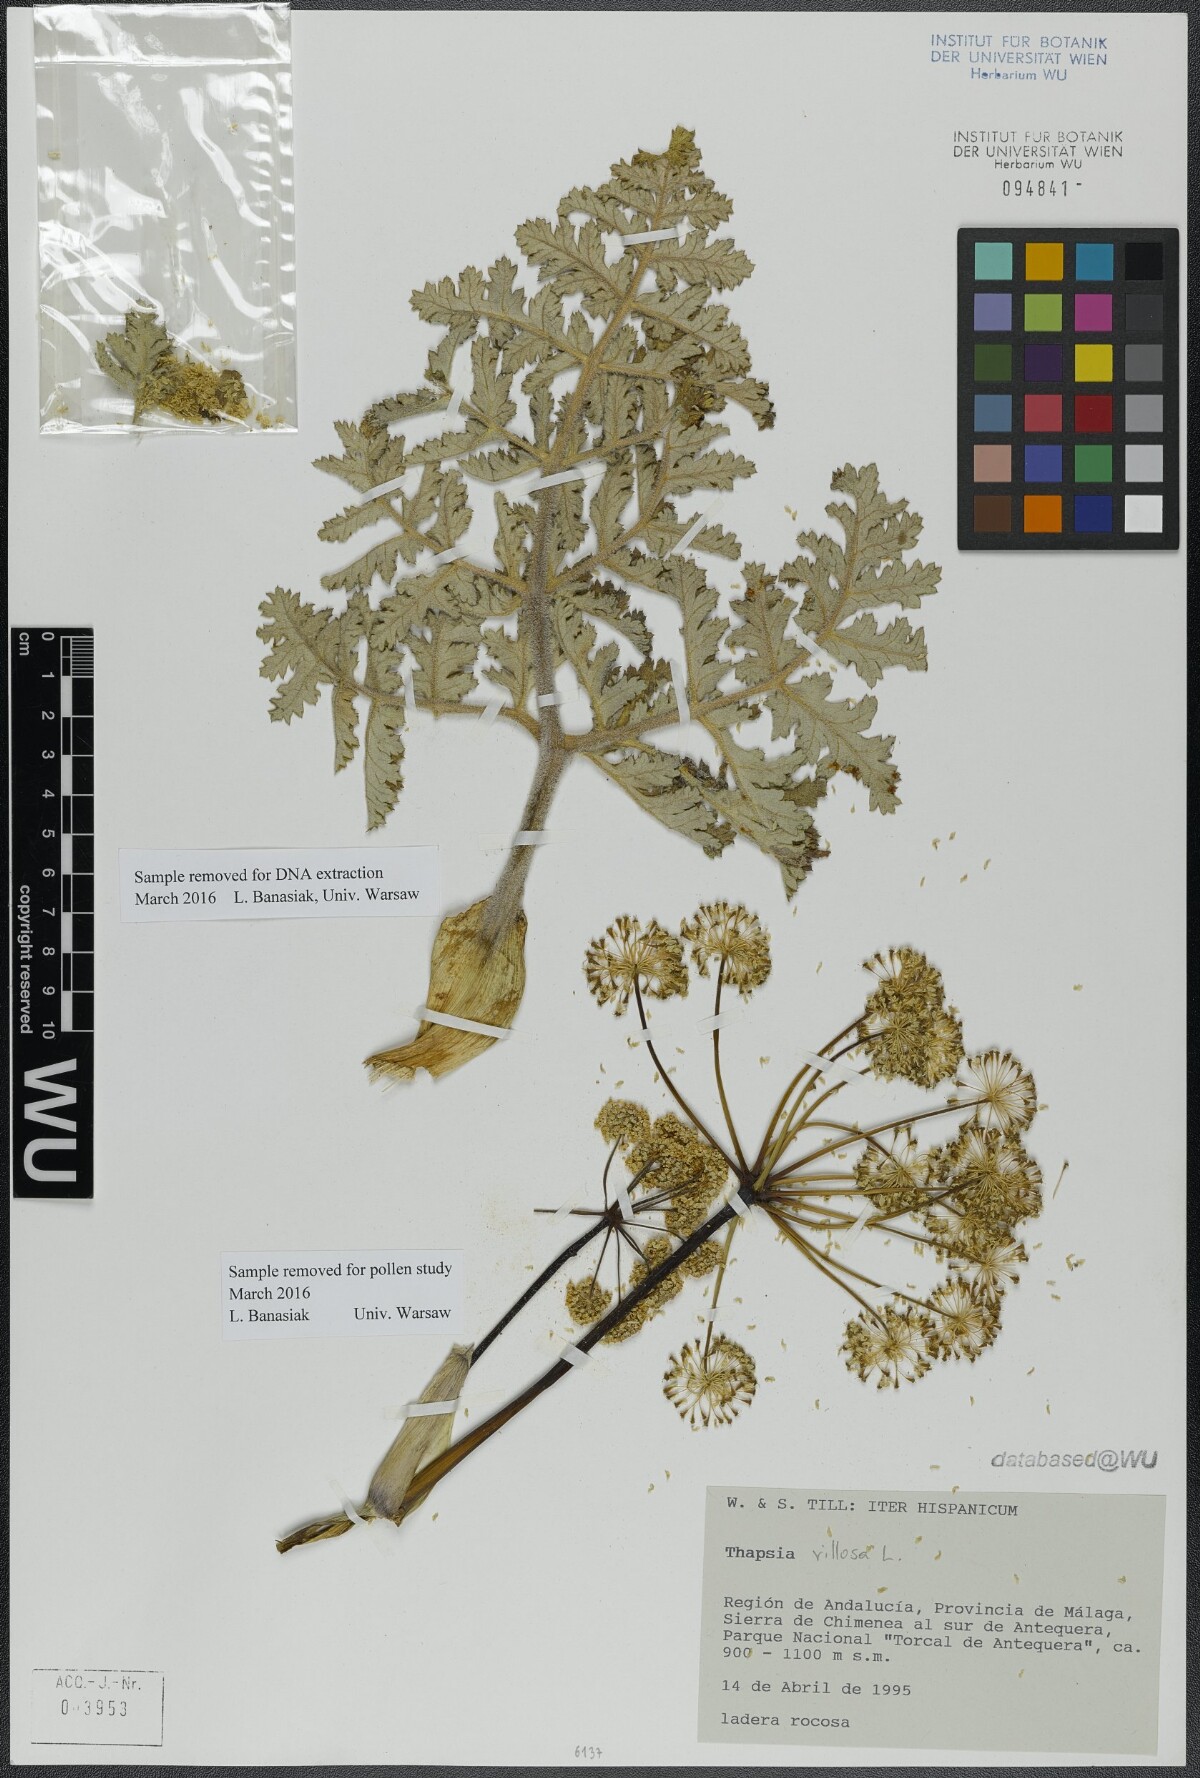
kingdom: Plantae
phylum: Tracheophyta
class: Magnoliopsida
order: Apiales
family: Apiaceae
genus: Thapsia
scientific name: Thapsia villosa
